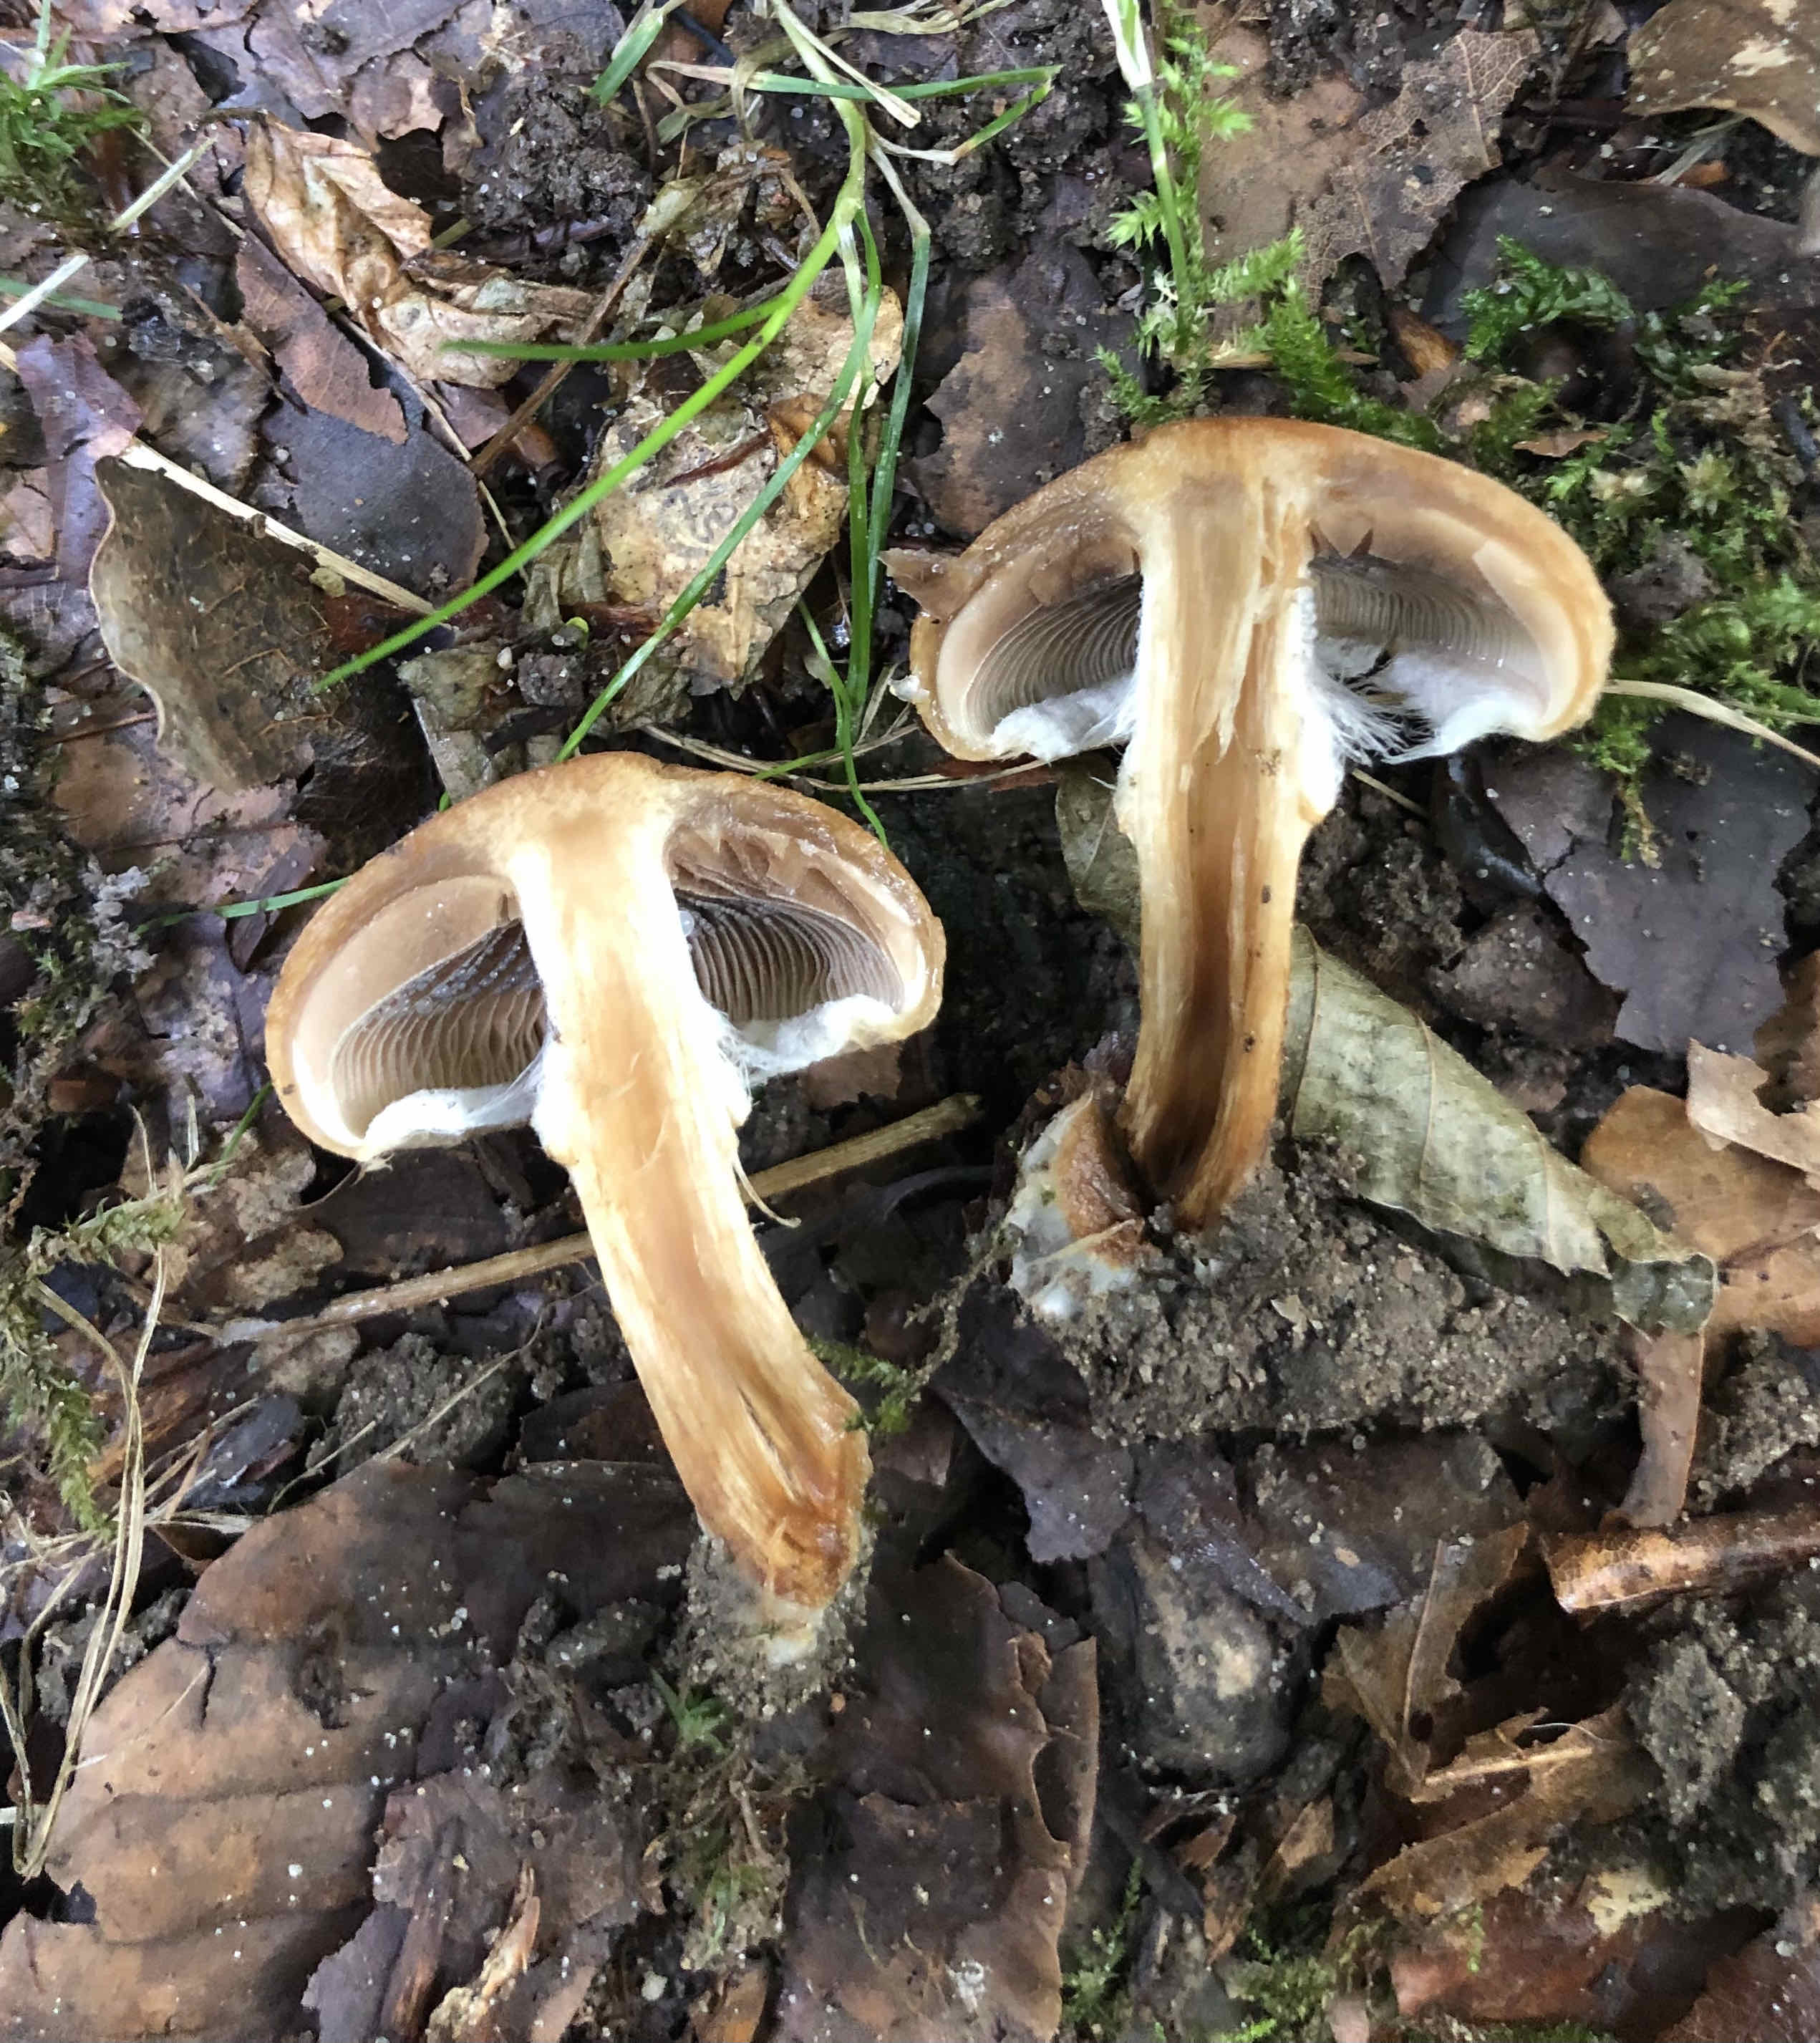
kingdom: Fungi
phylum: Basidiomycota
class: Agaricomycetes
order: Agaricales
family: Psathyrellaceae
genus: Lacrymaria
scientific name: Lacrymaria lacrymabunda
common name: grædende mørkhat
